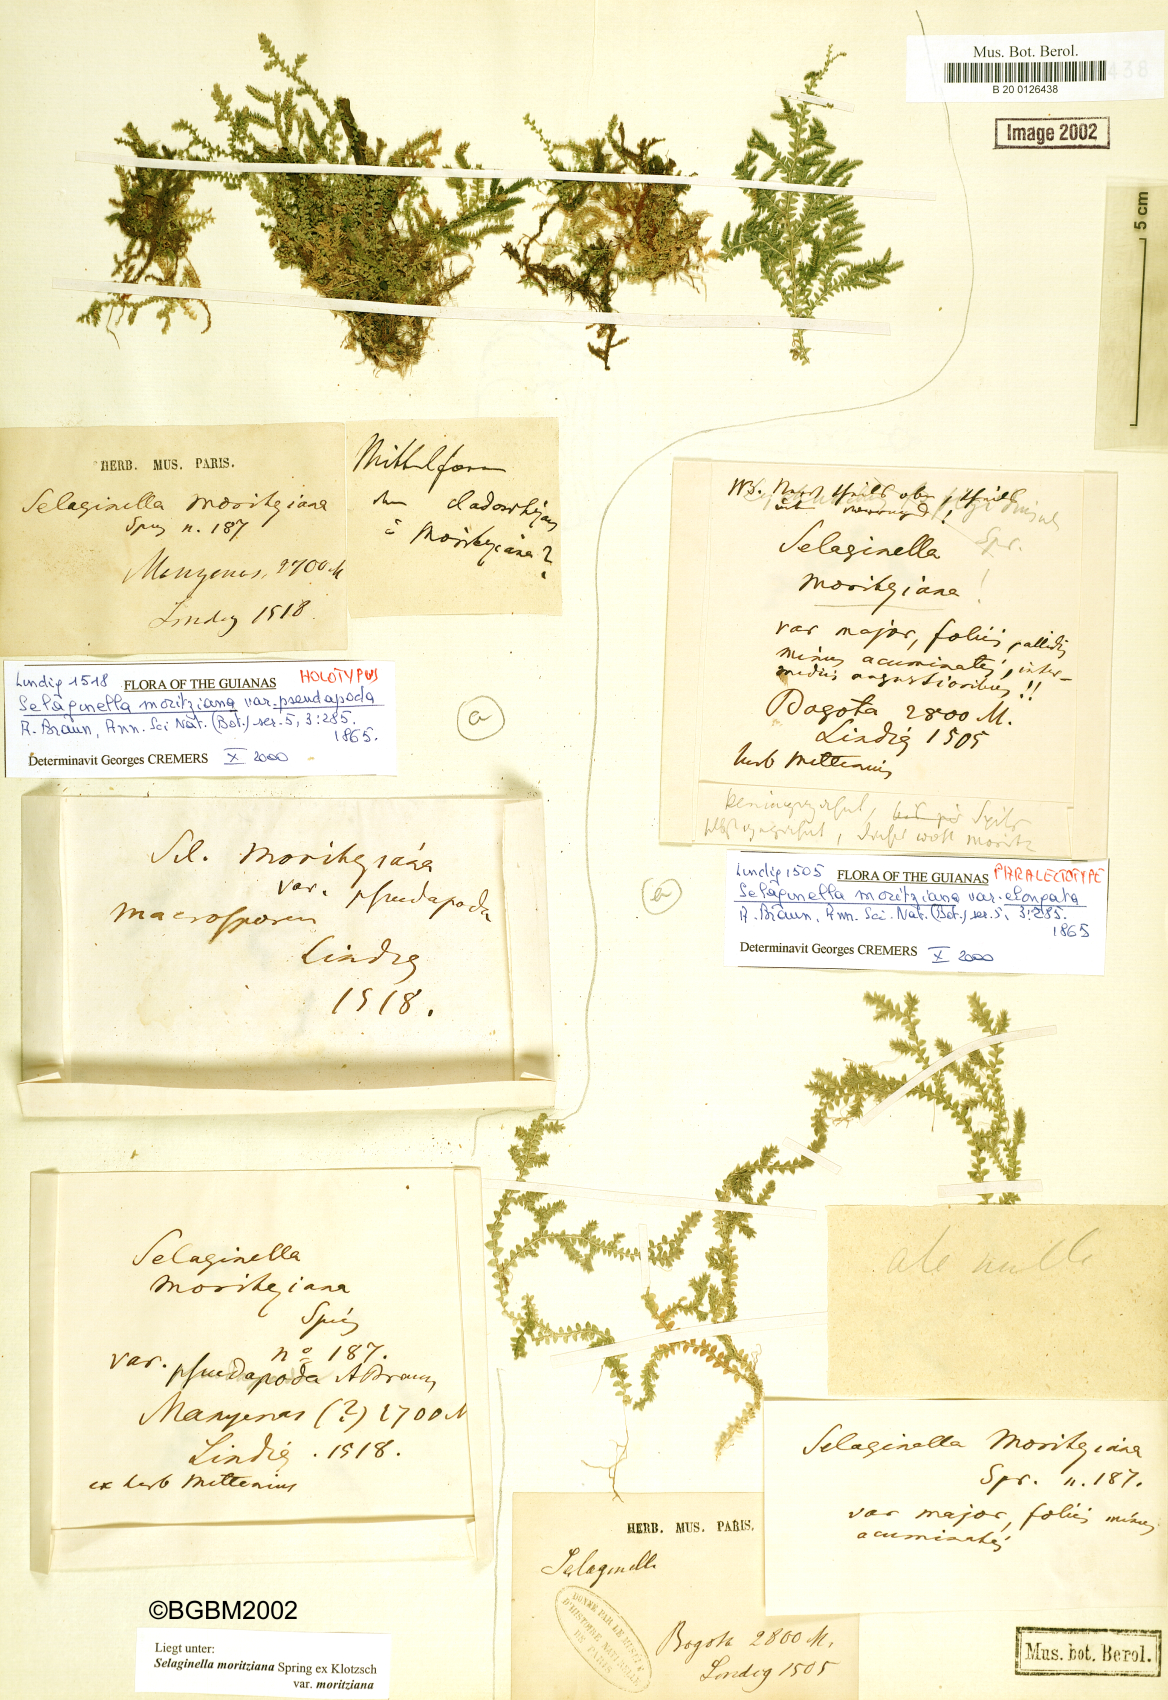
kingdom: Plantae
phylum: Tracheophyta
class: Lycopodiopsida
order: Selaginellales
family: Selaginellaceae
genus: Selaginella
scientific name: Selaginella moritziana
